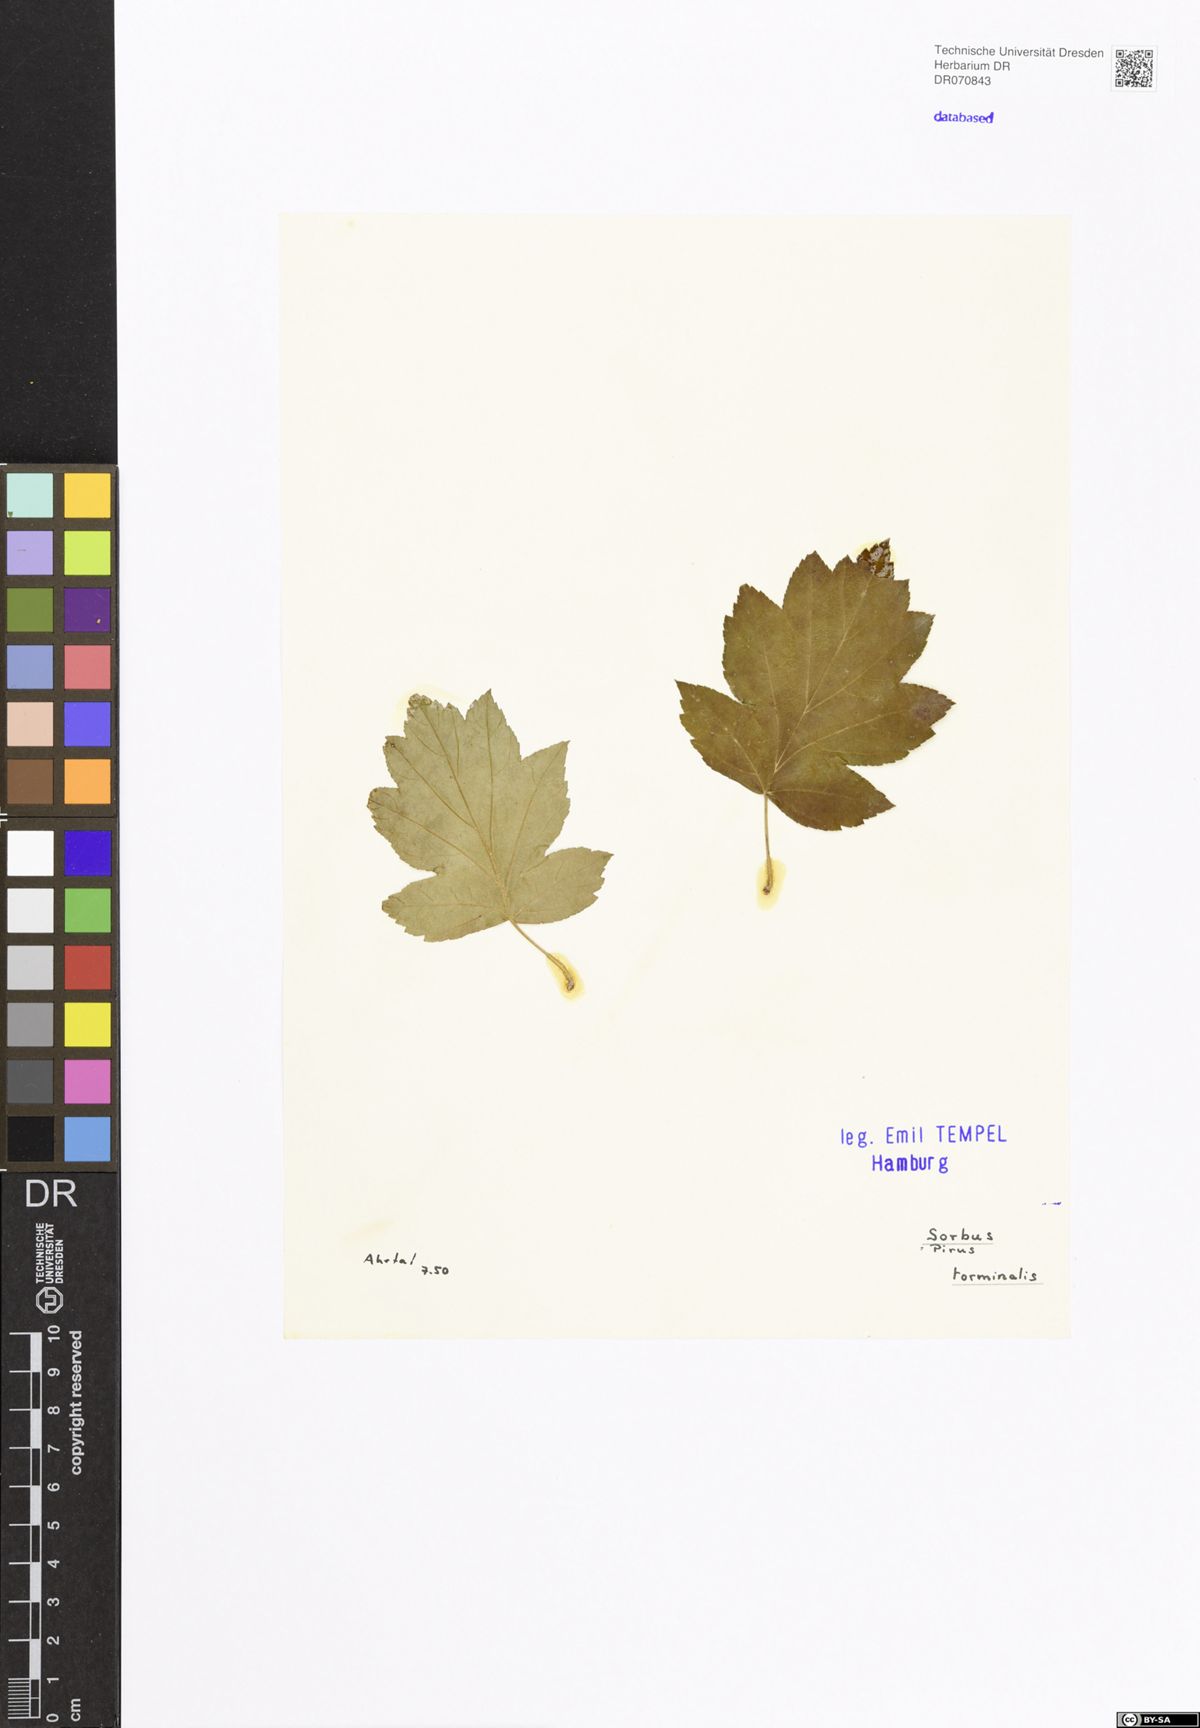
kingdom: Plantae
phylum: Tracheophyta
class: Magnoliopsida
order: Rosales
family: Rosaceae
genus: Torminalis
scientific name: Torminalis glaberrima
